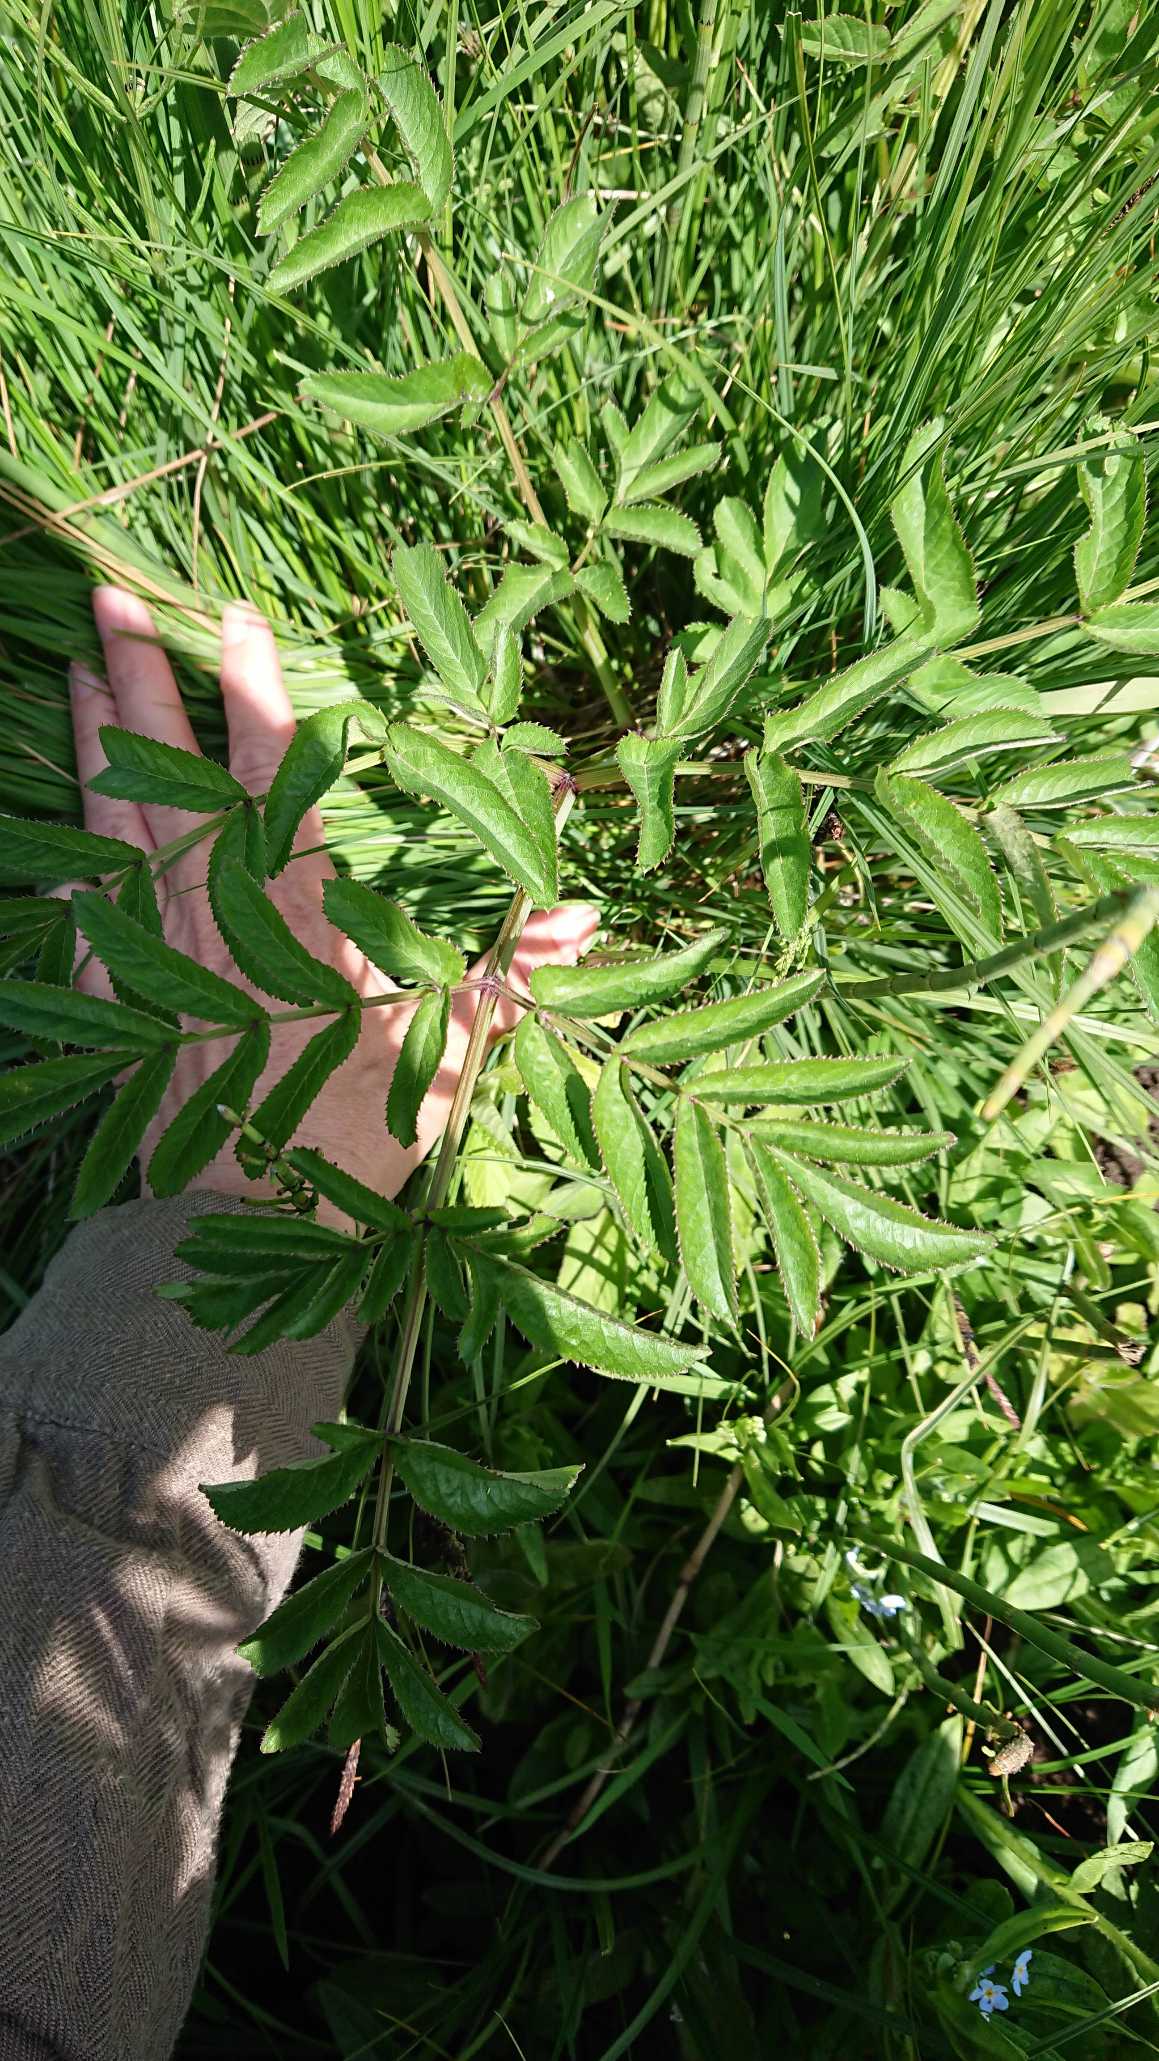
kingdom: Plantae
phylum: Tracheophyta
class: Magnoliopsida
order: Apiales
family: Apiaceae
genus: Angelica
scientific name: Angelica sylvestris
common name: Angelik
